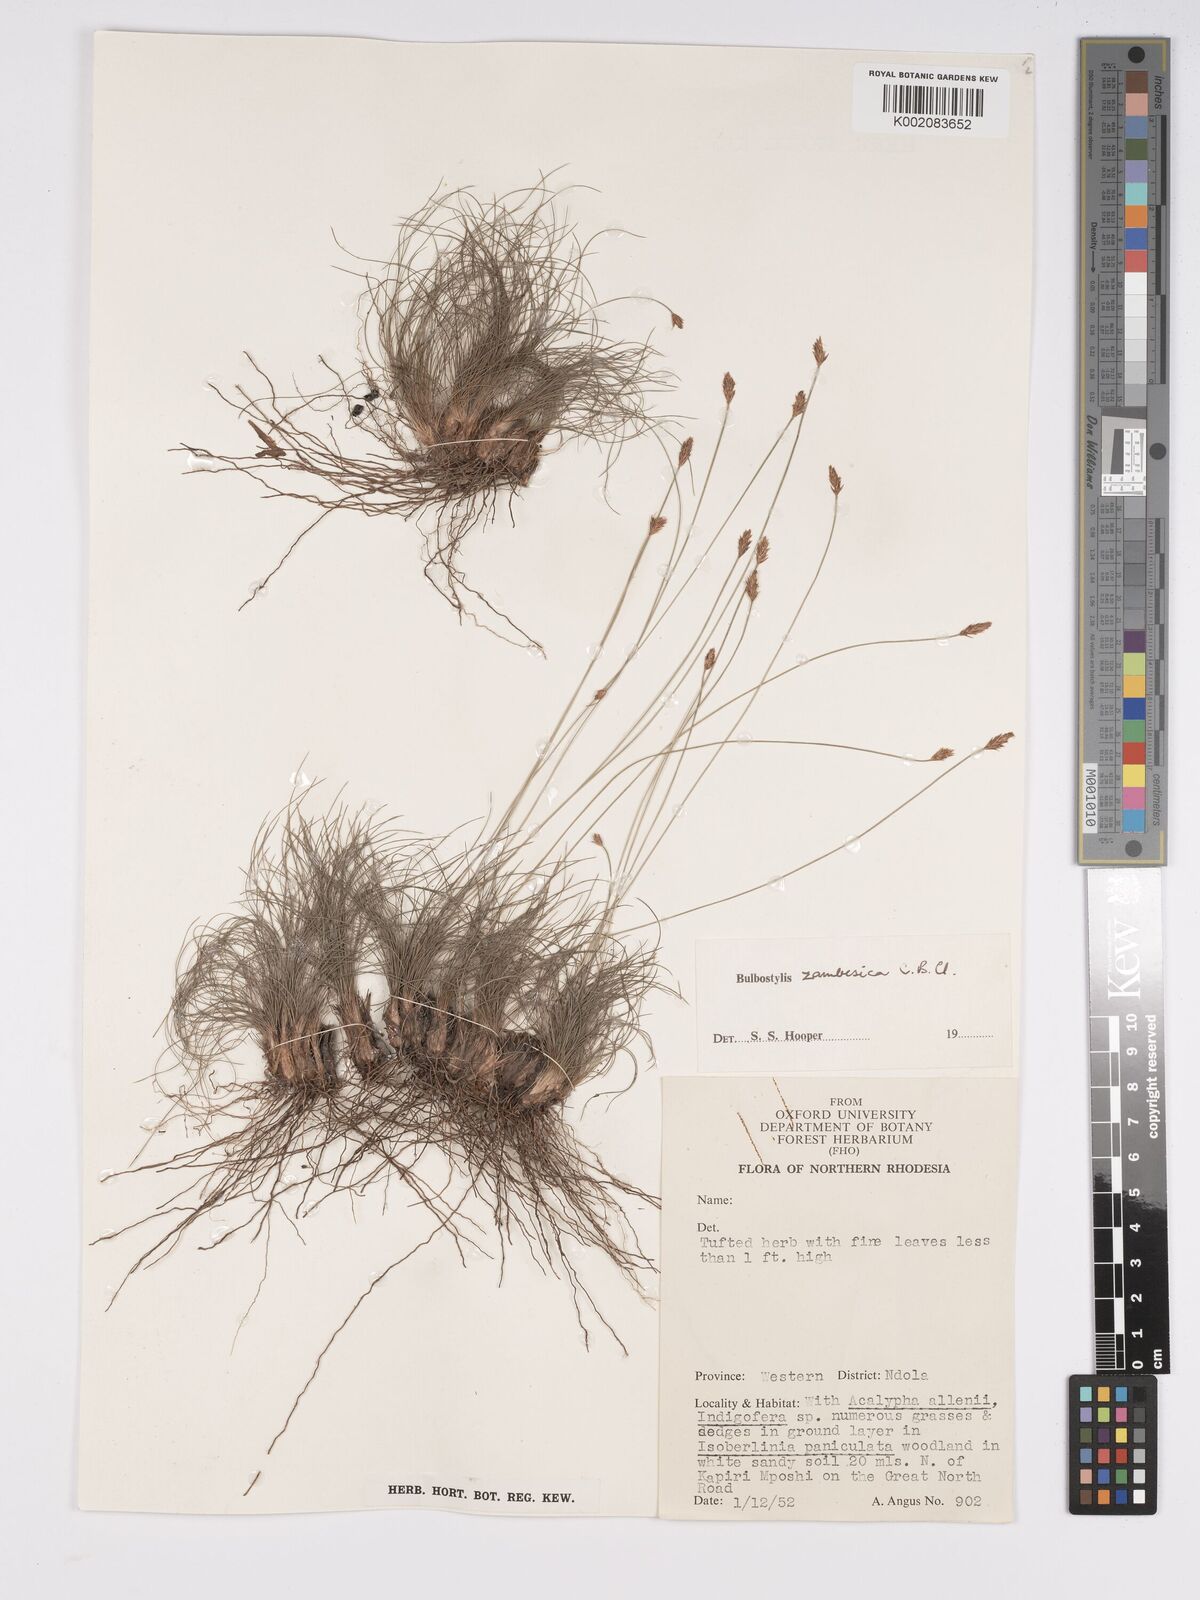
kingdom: Plantae
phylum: Tracheophyta
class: Liliopsida
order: Poales
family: Cyperaceae
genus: Bulbostylis
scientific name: Bulbostylis macra
